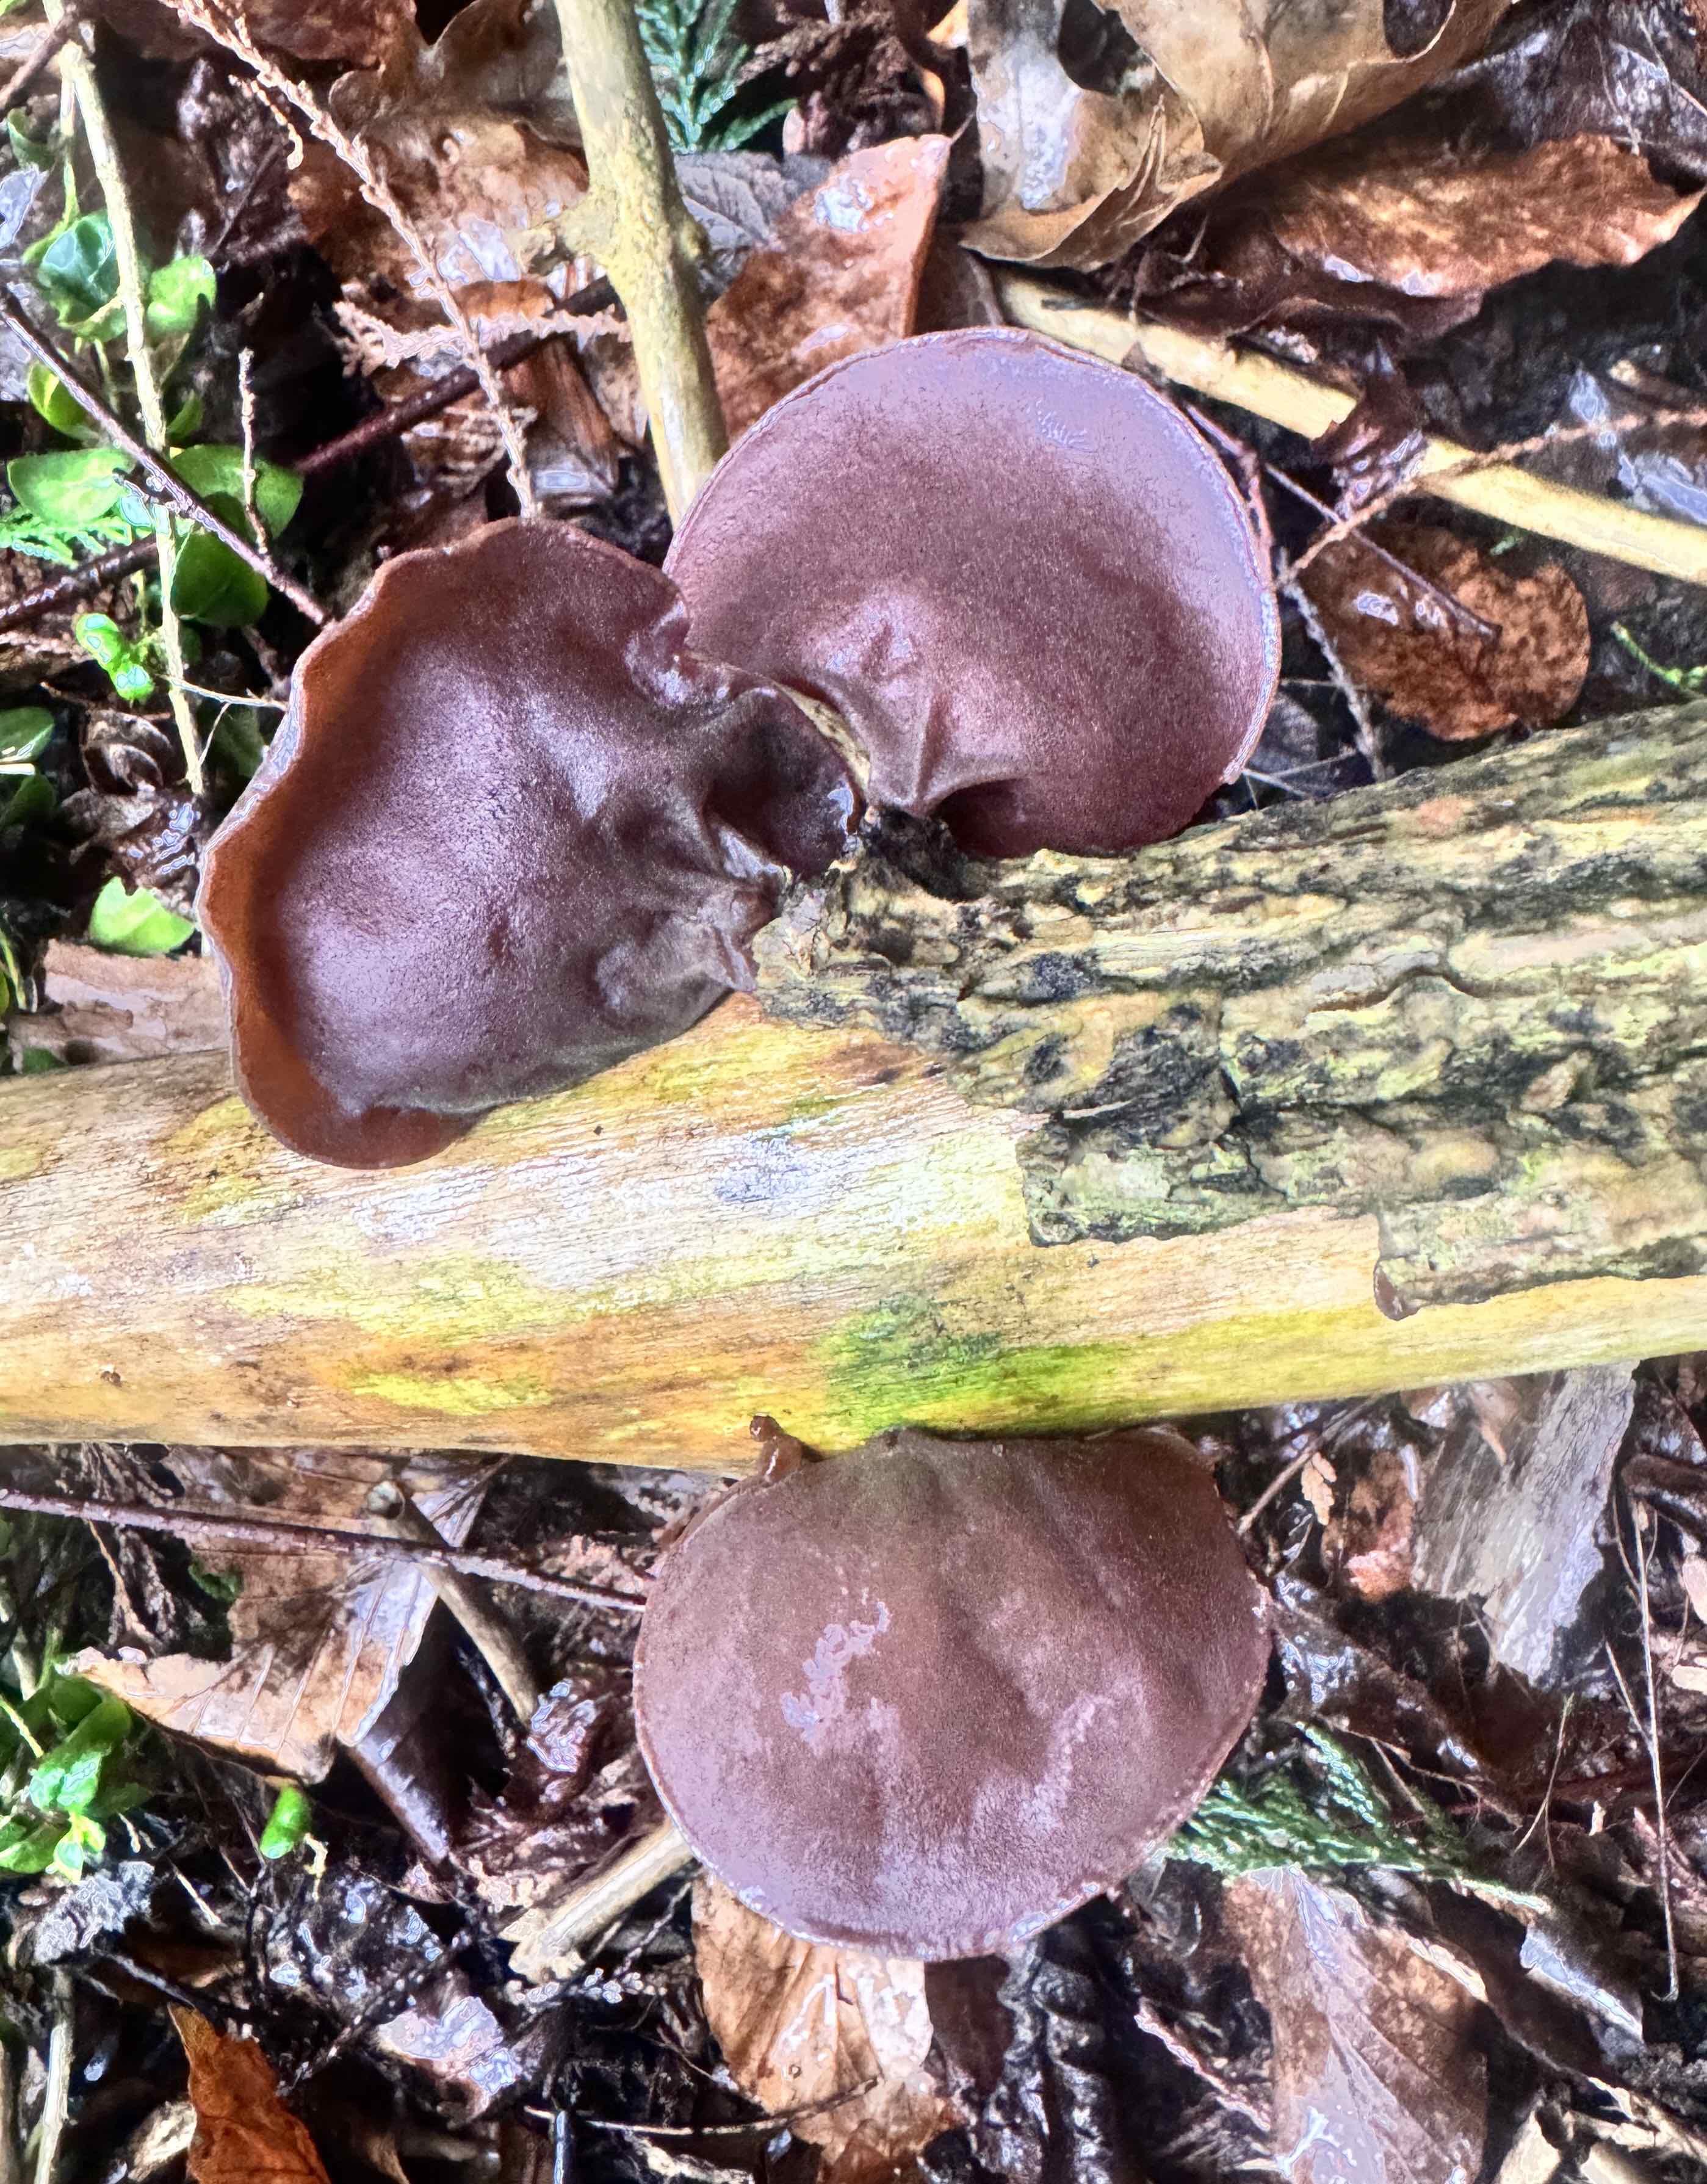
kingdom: Fungi
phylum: Basidiomycota
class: Agaricomycetes
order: Auriculariales
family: Auriculariaceae
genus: Auricularia
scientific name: Auricularia auricula-judae
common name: almindelig judasøre
